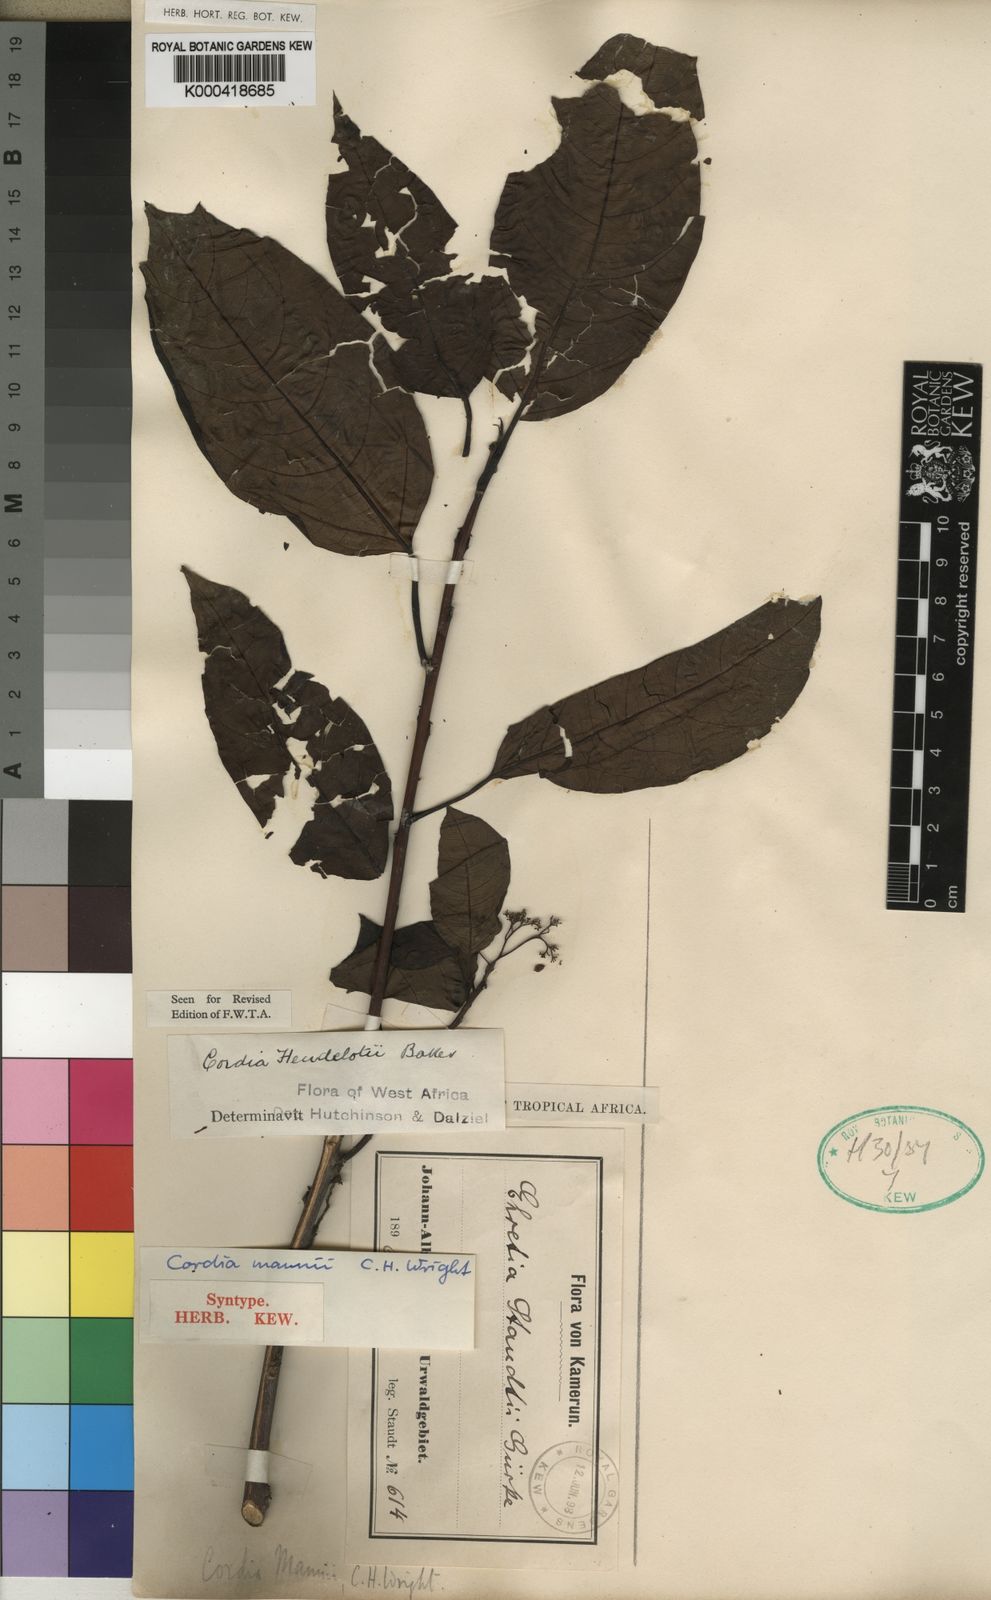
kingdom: Plantae
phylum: Tracheophyta
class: Magnoliopsida
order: Boraginales
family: Cordiaceae
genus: Cordia
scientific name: Cordia
